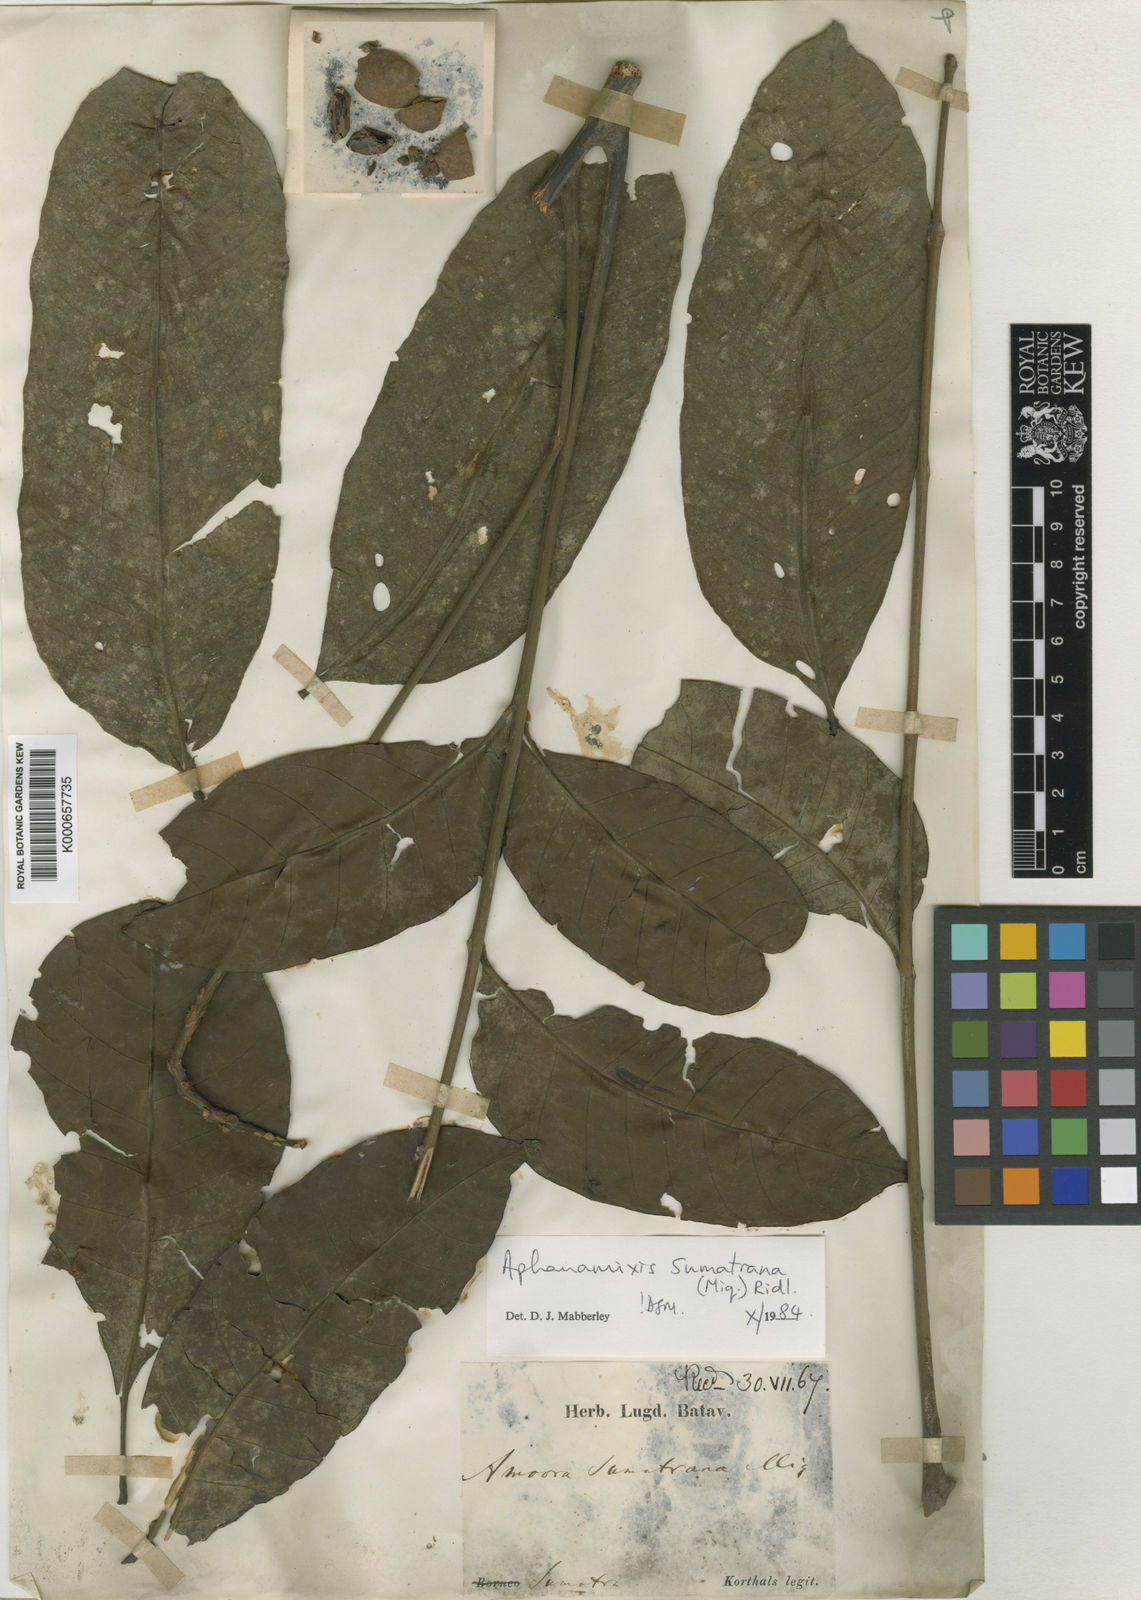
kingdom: Plantae
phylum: Tracheophyta
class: Magnoliopsida
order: Sapindales
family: Meliaceae
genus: Aphanamixis
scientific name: Aphanamixis
